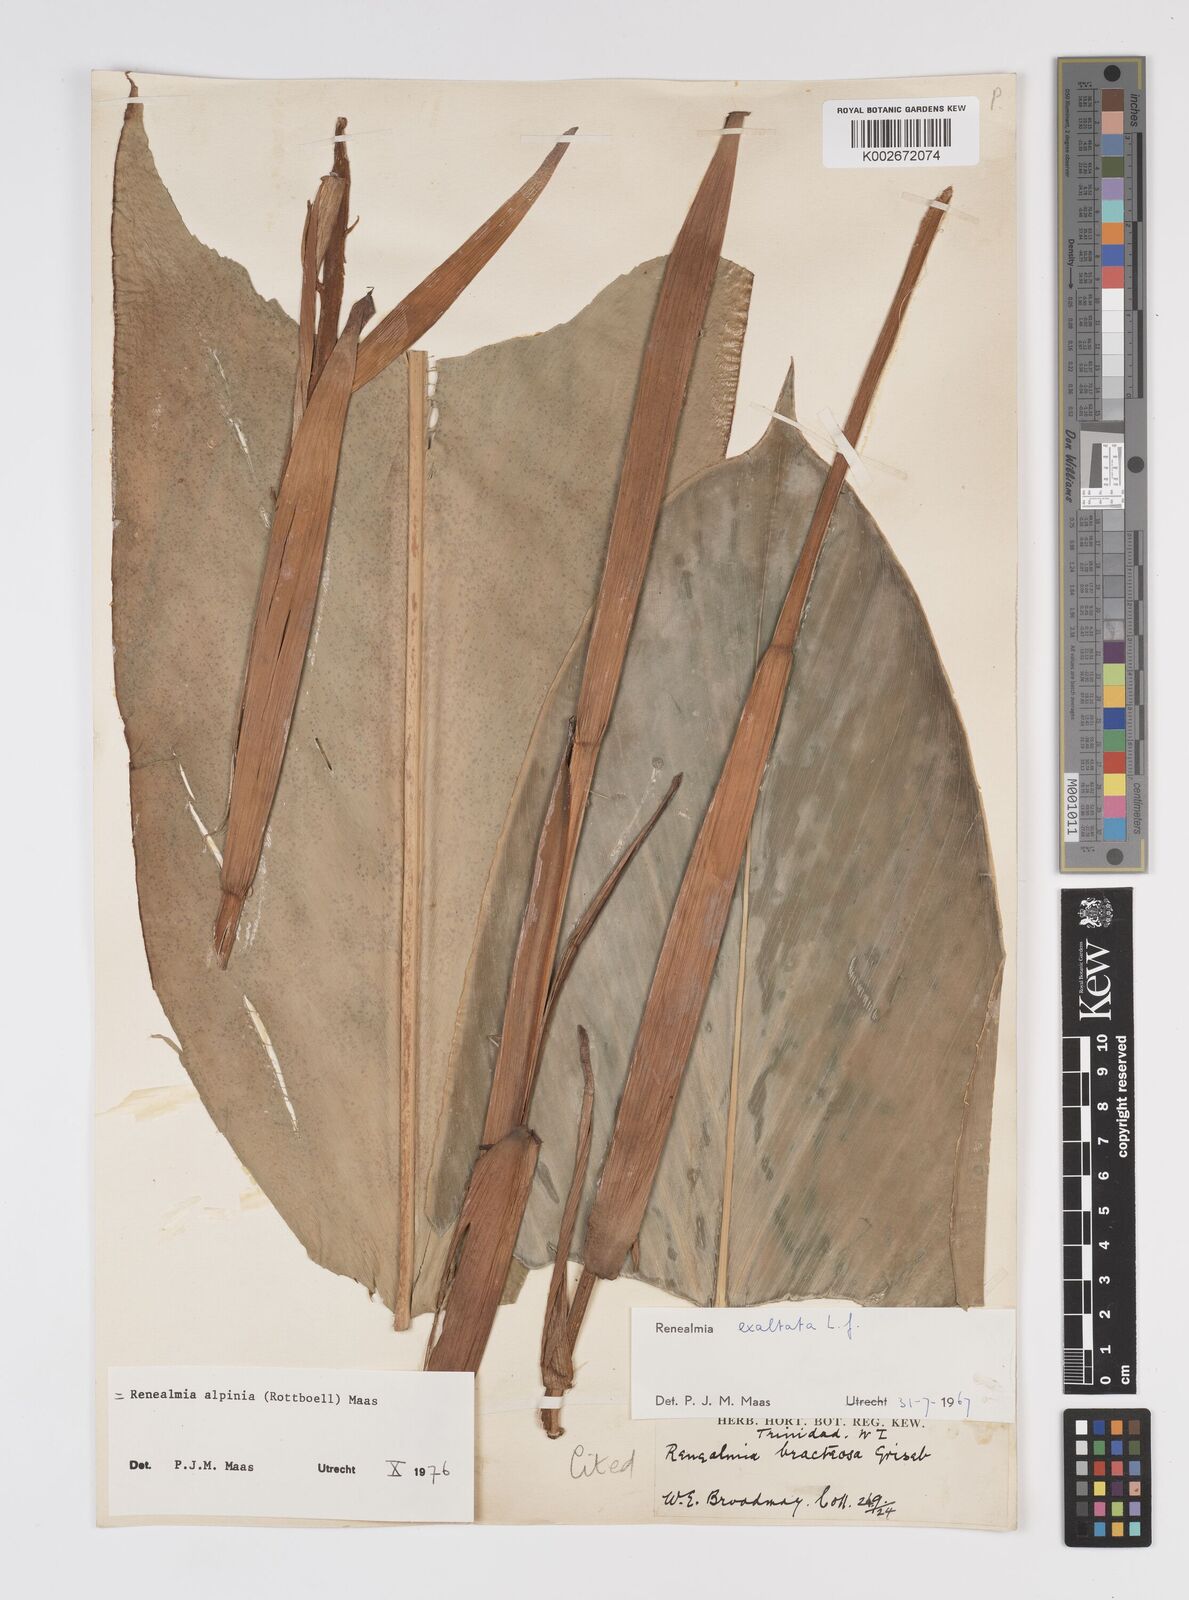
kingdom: Plantae
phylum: Tracheophyta
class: Liliopsida
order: Zingiberales
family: Zingiberaceae
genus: Renealmia
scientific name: Renealmia alpinia
